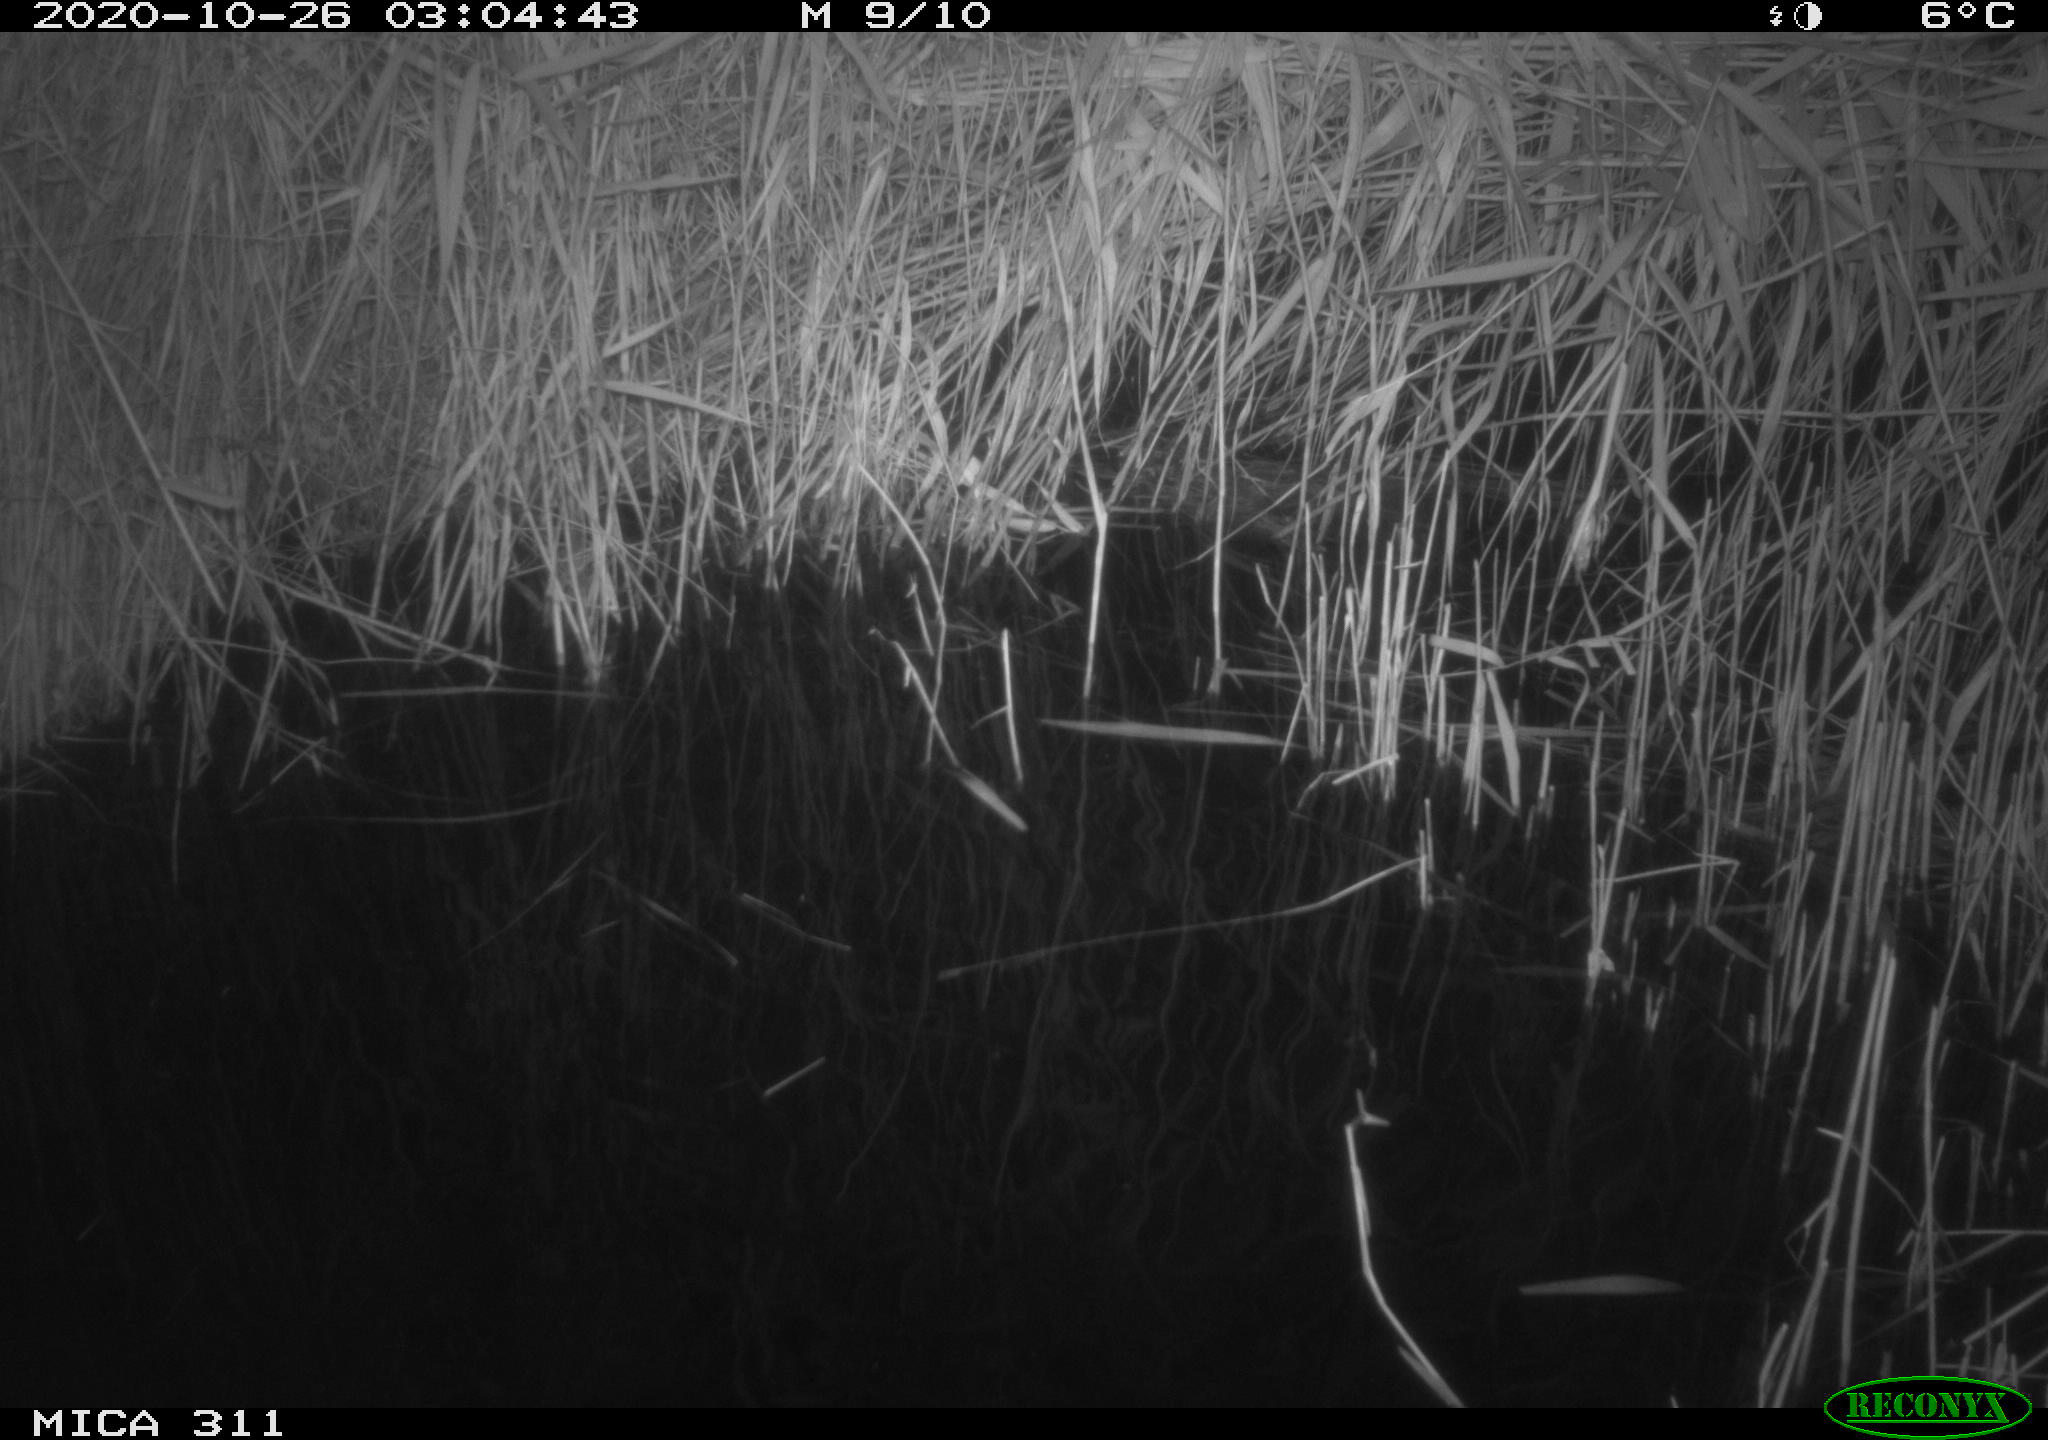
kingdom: Animalia
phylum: Chordata
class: Mammalia
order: Rodentia
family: Cricetidae
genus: Ondatra
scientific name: Ondatra zibethicus
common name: Muskrat
